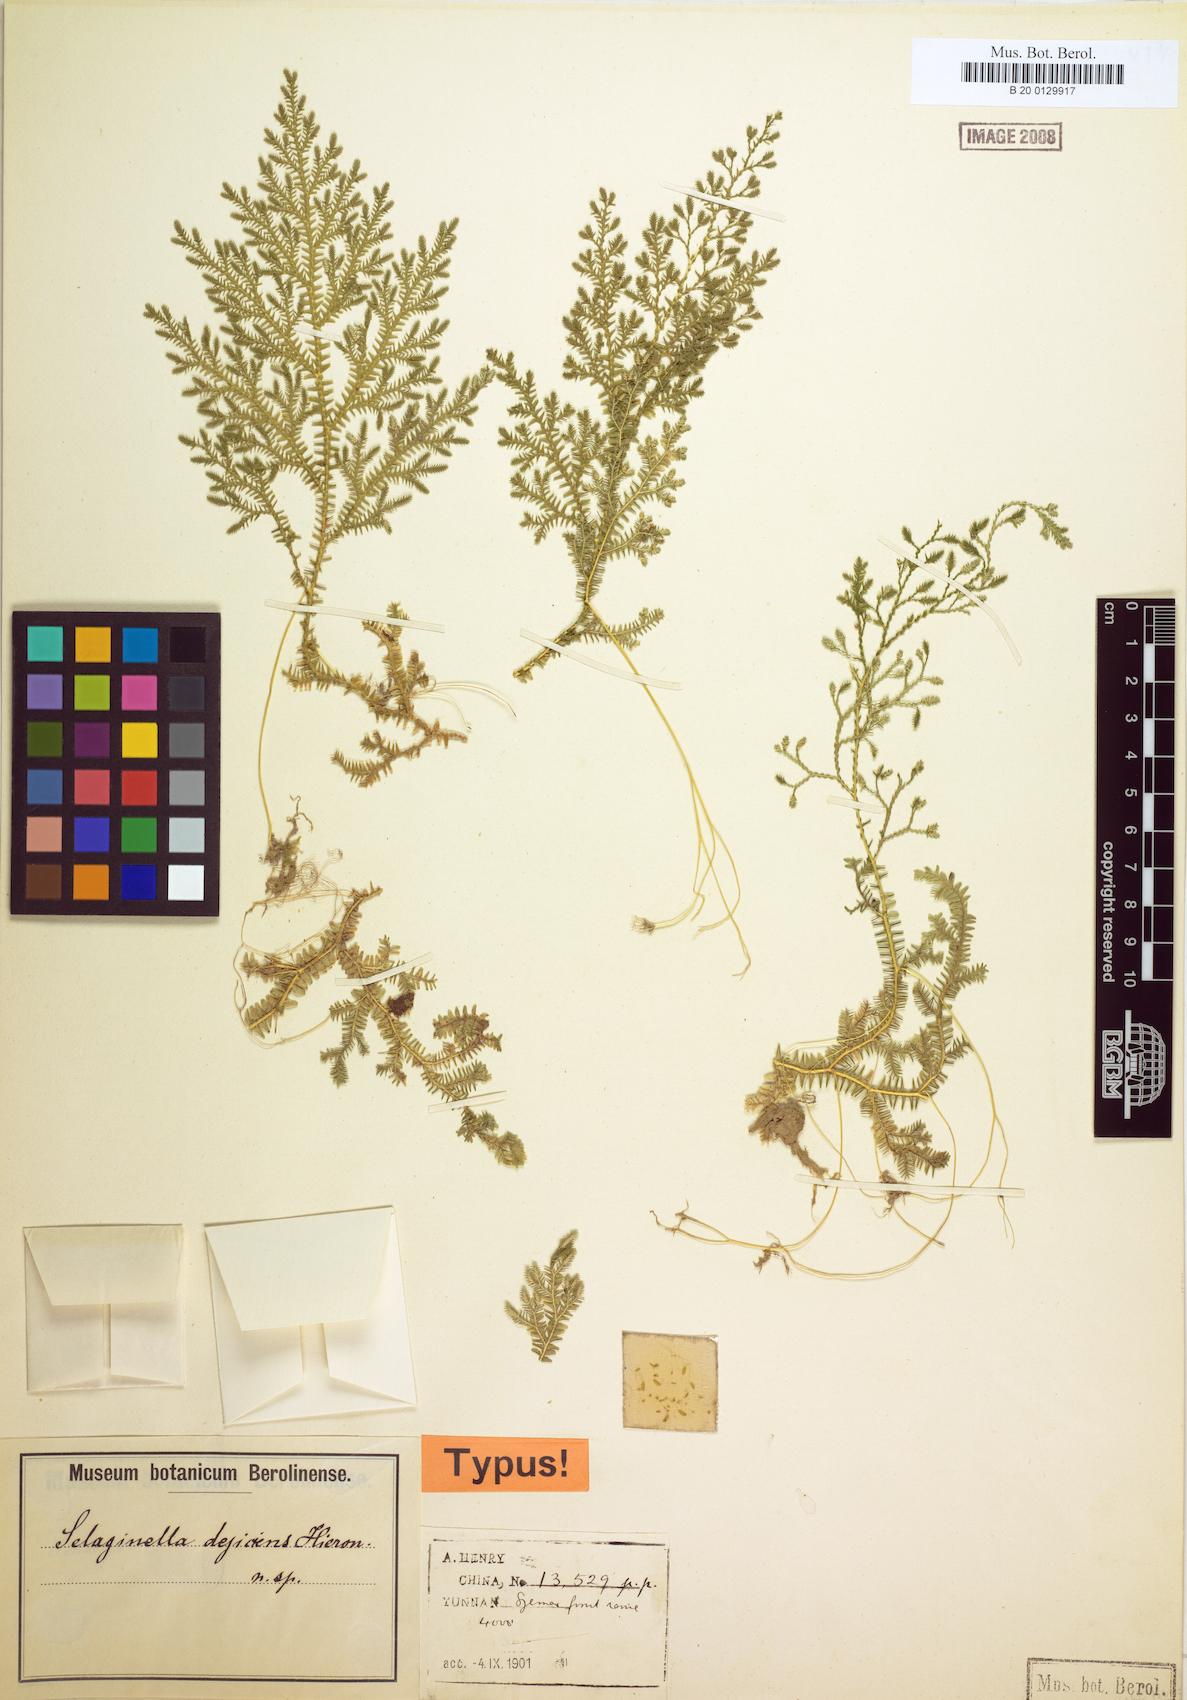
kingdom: Plantae
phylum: Tracheophyta
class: Lycopodiopsida
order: Selaginellales
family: Selaginellaceae
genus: Selaginella
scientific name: Selaginella decipiens
